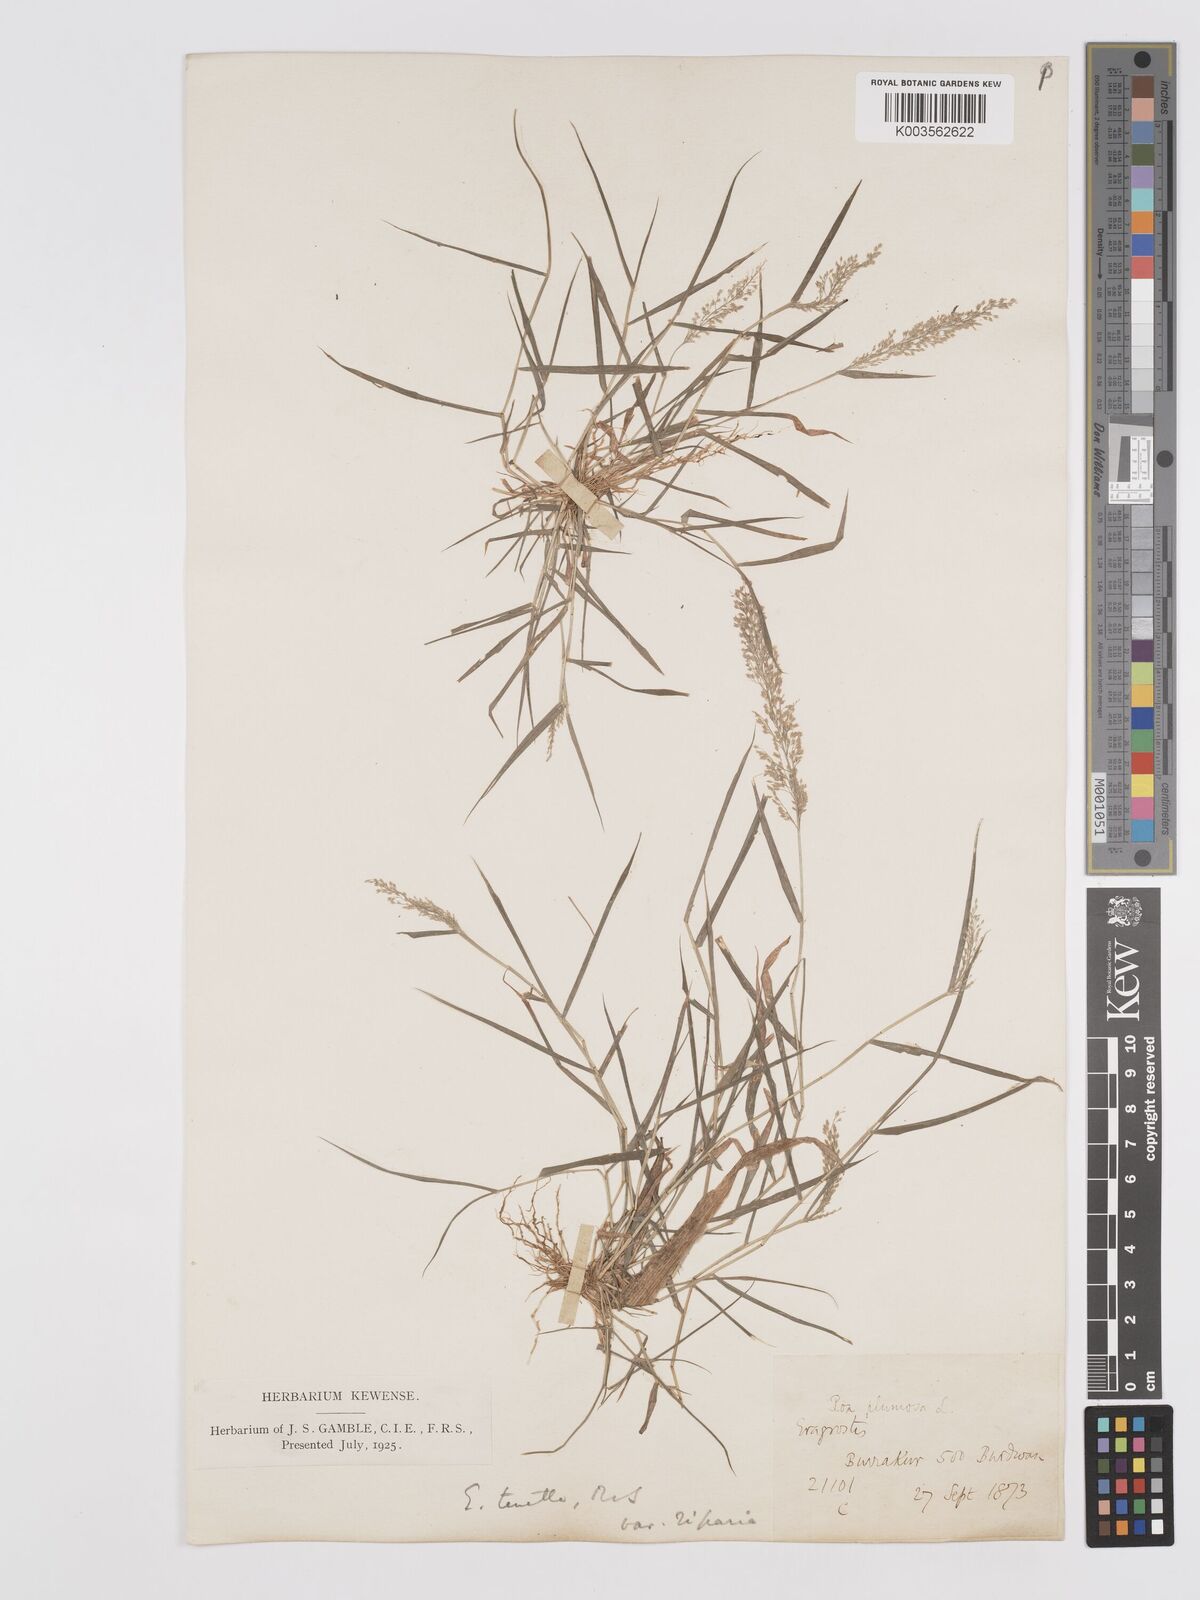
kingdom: Plantae
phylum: Tracheophyta
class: Liliopsida
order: Poales
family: Poaceae
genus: Eragrostis
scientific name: Eragrostis tenella
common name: Japanese lovegrass
